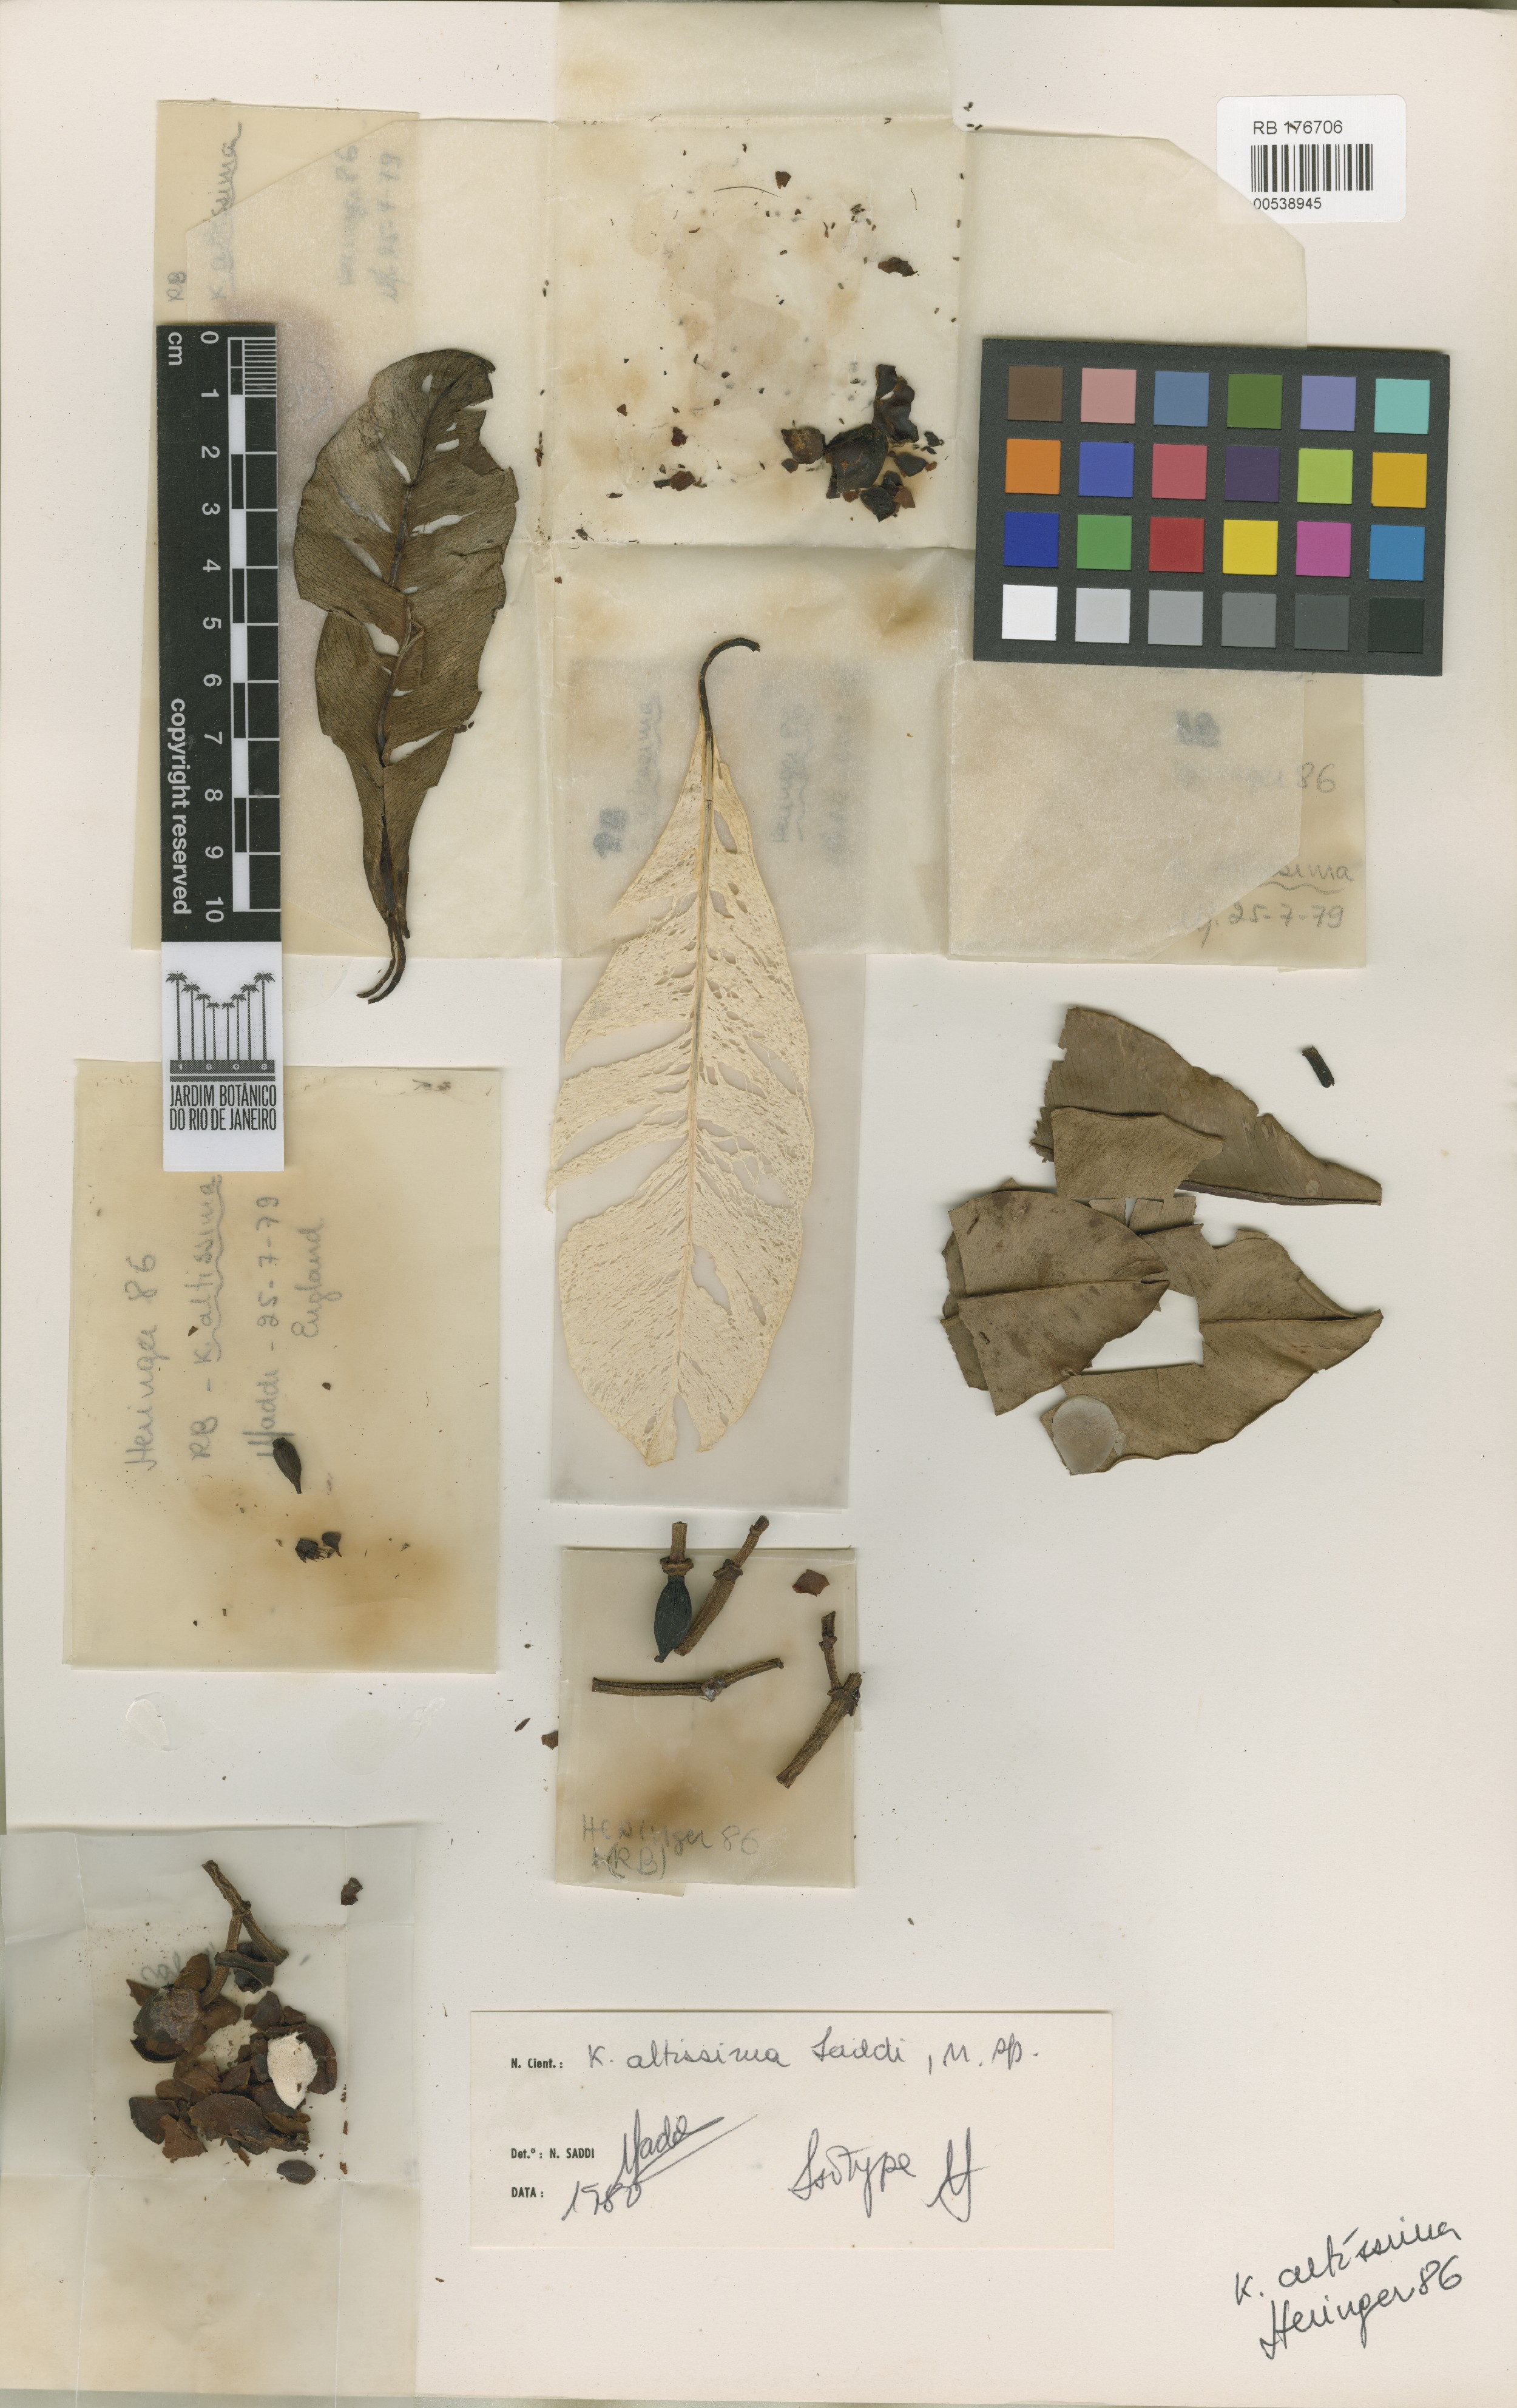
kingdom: Plantae
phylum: Tracheophyta
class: Magnoliopsida
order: Malpighiales
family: Calophyllaceae
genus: Kielmeyera
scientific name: Kielmeyera altissima
